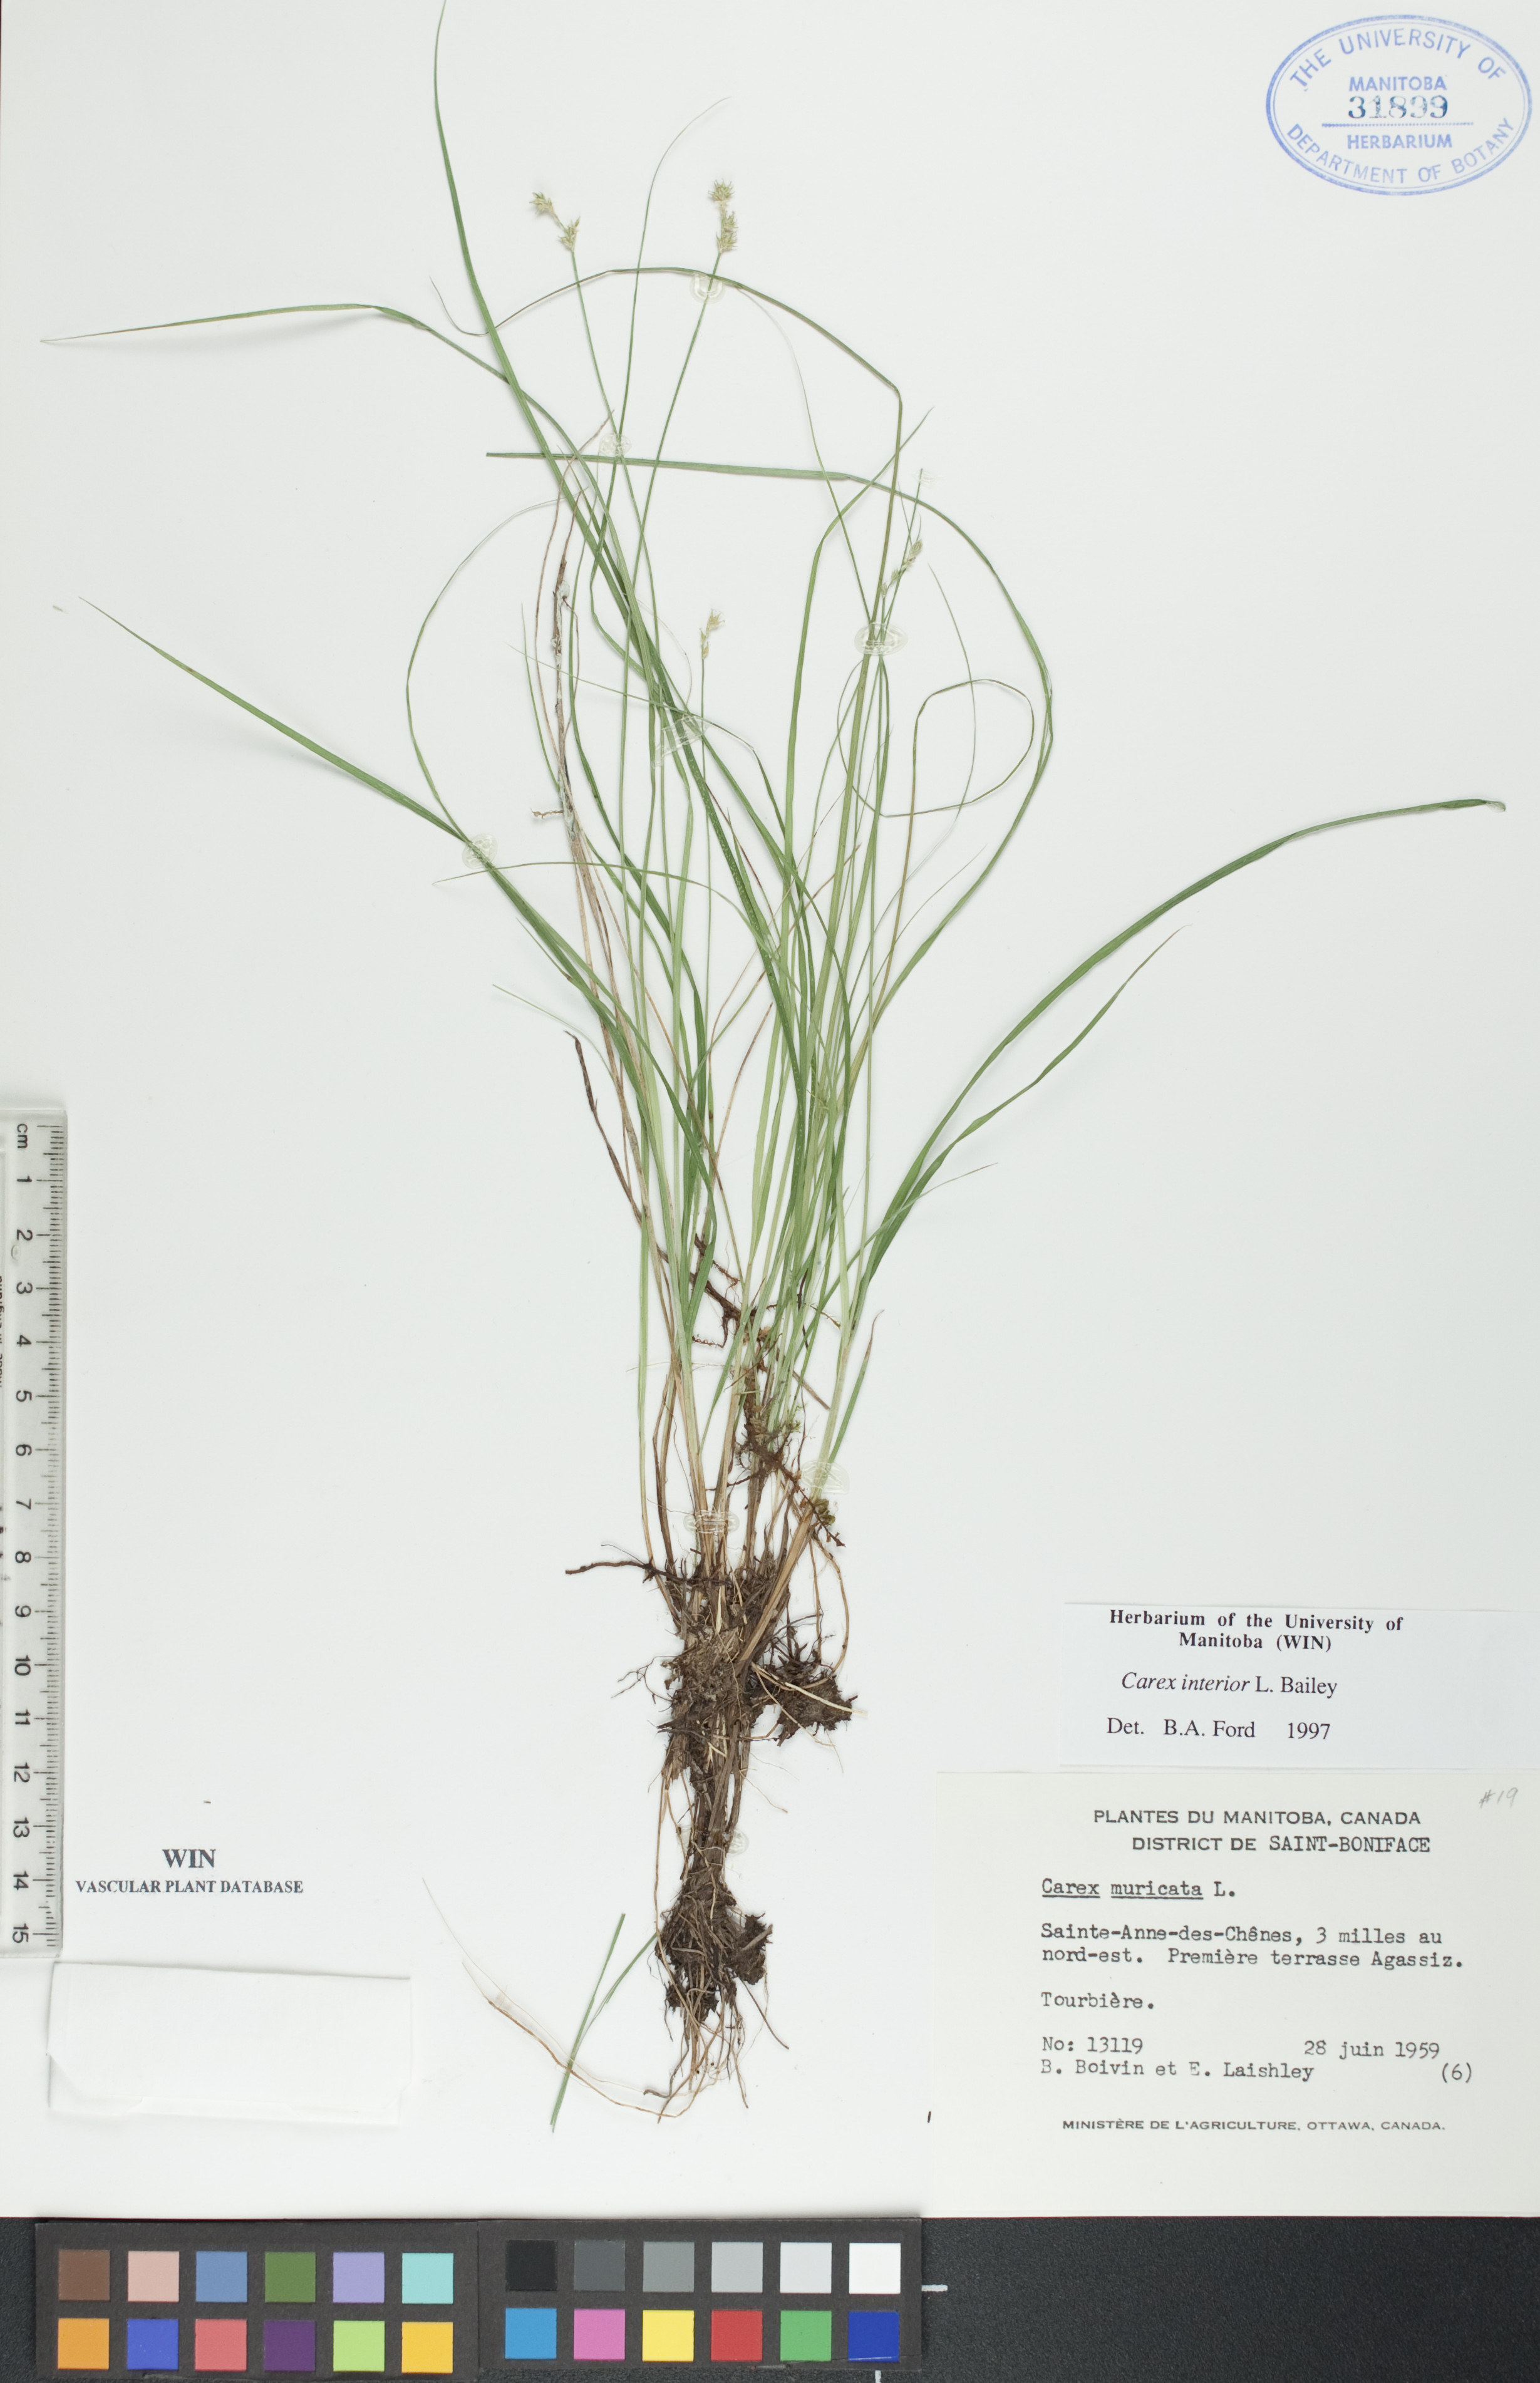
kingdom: Plantae
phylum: Tracheophyta
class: Liliopsida
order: Poales
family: Cyperaceae
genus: Carex
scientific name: Carex interior
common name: Inland sedge
